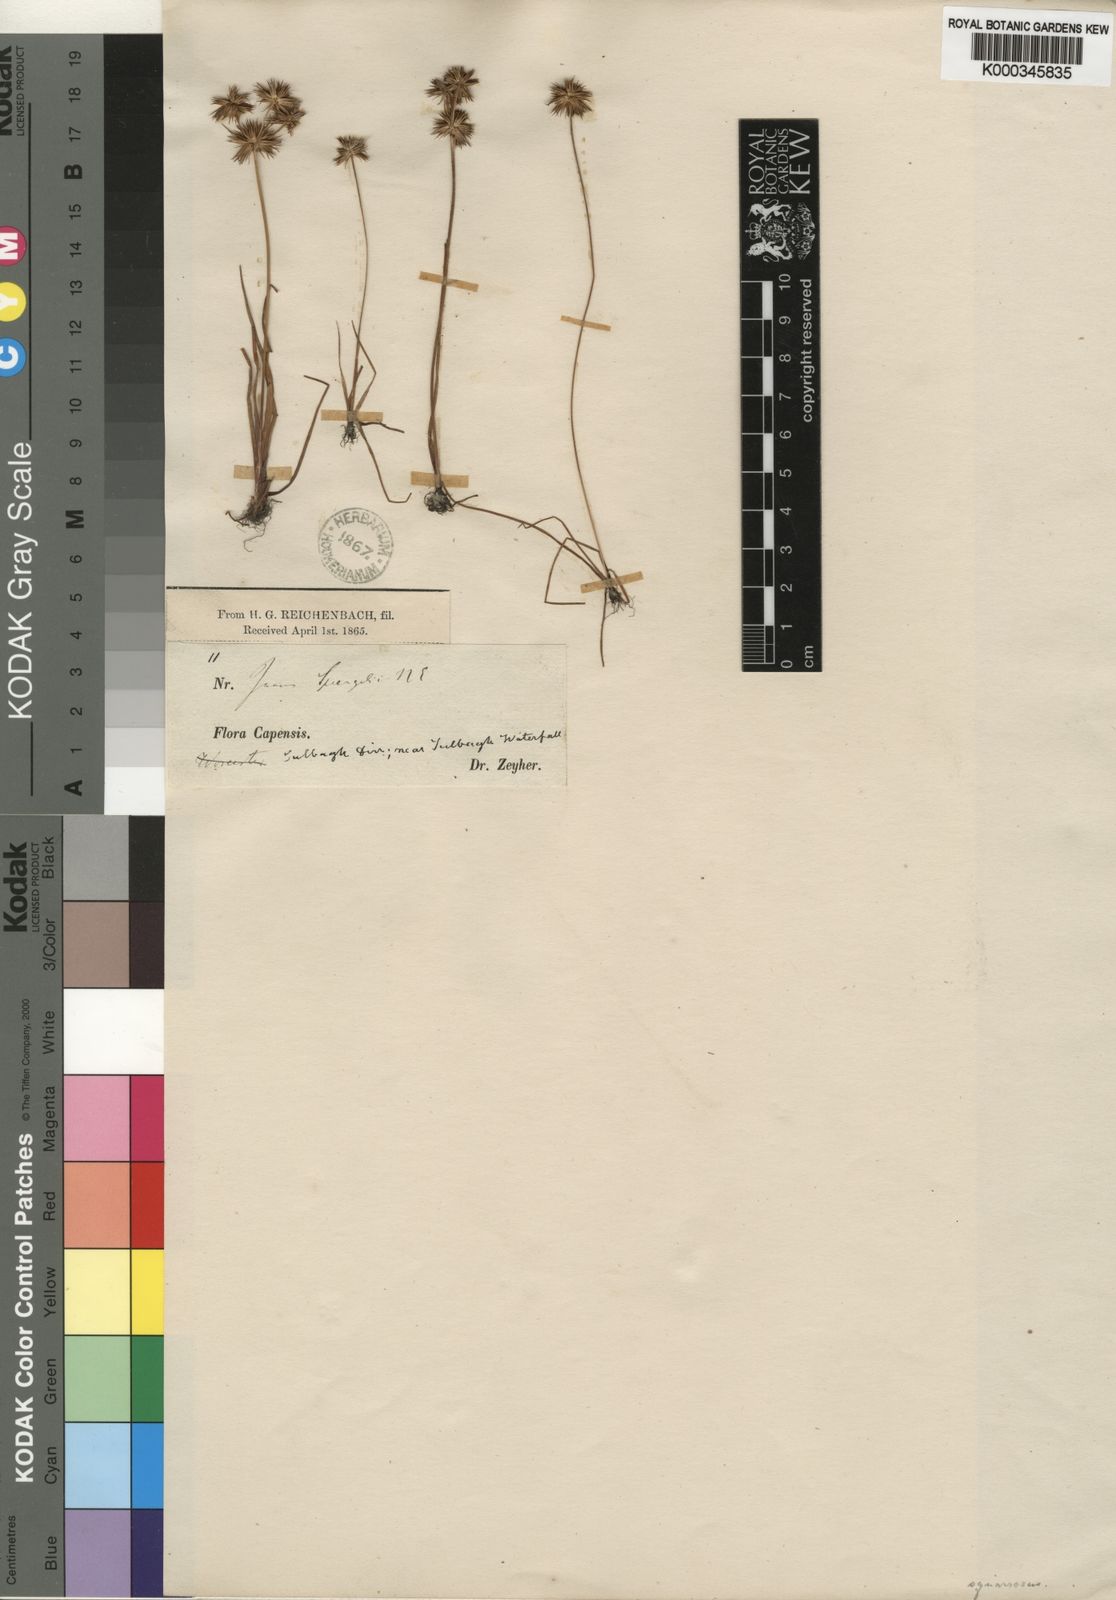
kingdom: Plantae
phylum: Tracheophyta
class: Liliopsida
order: Poales
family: Juncaceae
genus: Juncus
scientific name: Juncus
